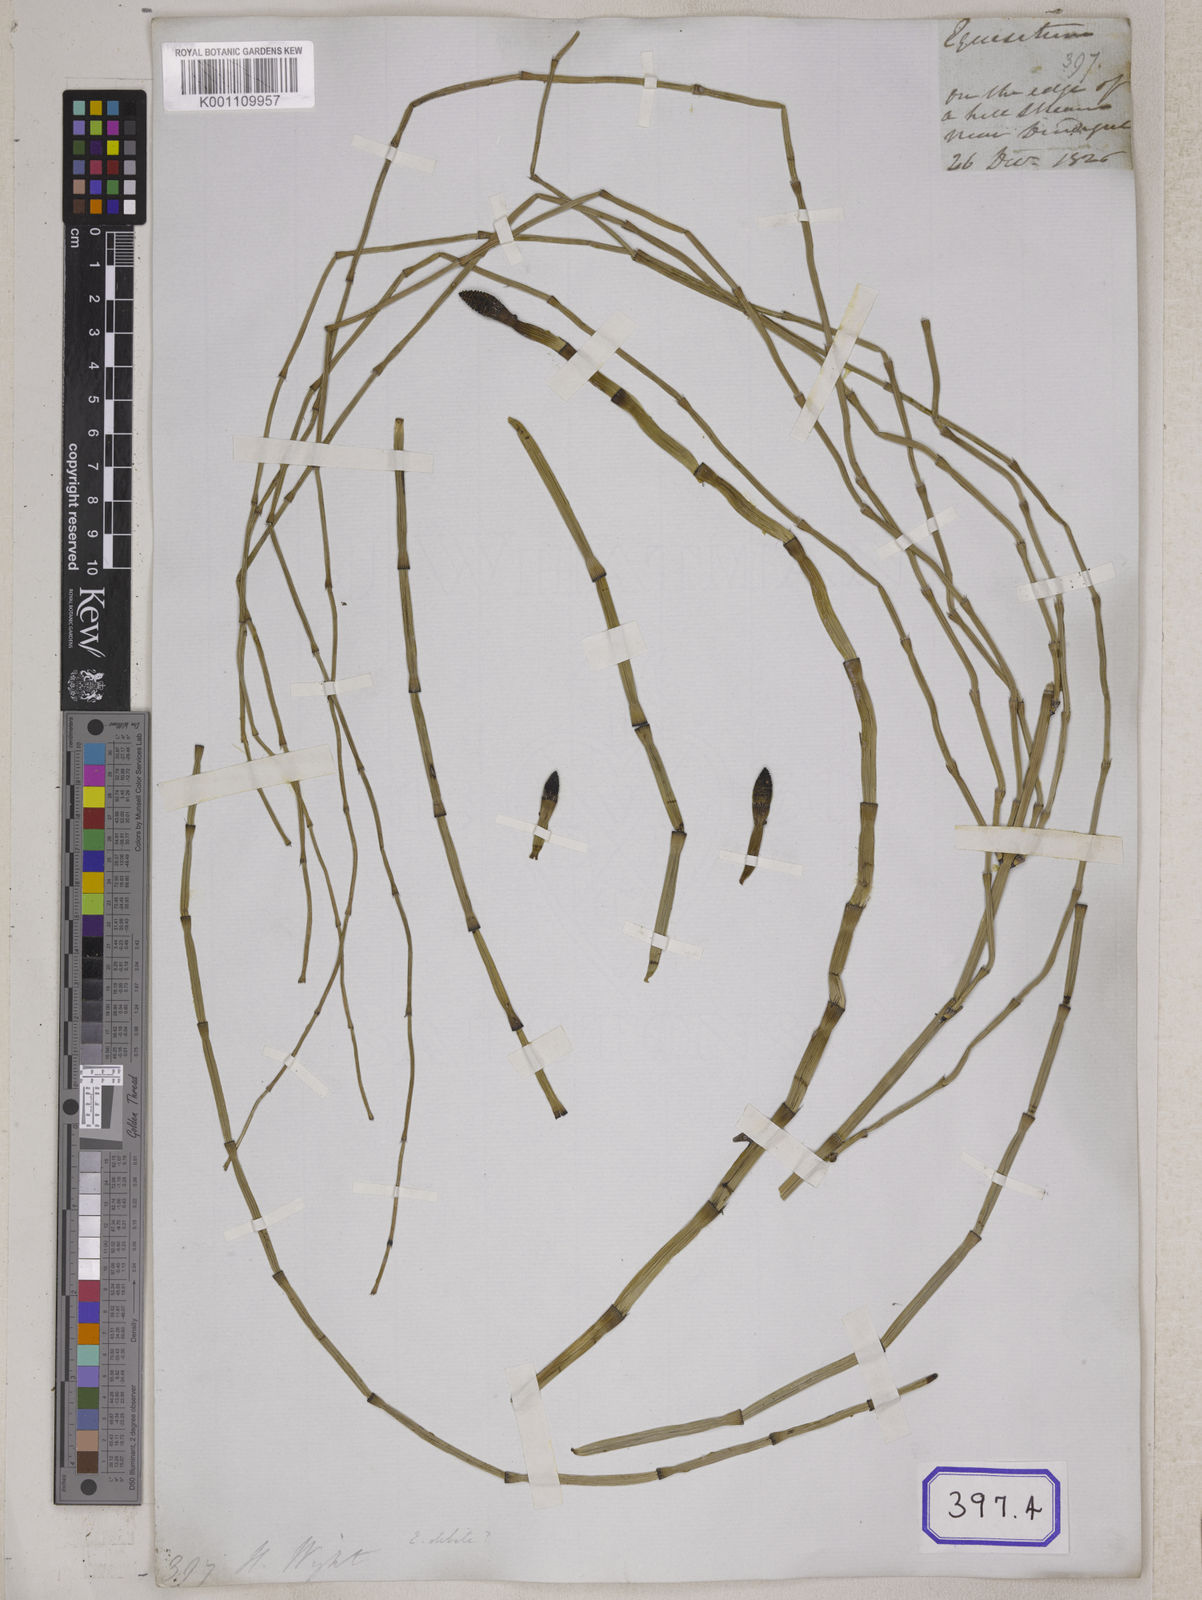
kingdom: Plantae
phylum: Tracheophyta
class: Polypodiopsida
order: Equisetales
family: Equisetaceae
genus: Equisetum
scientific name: Equisetum
